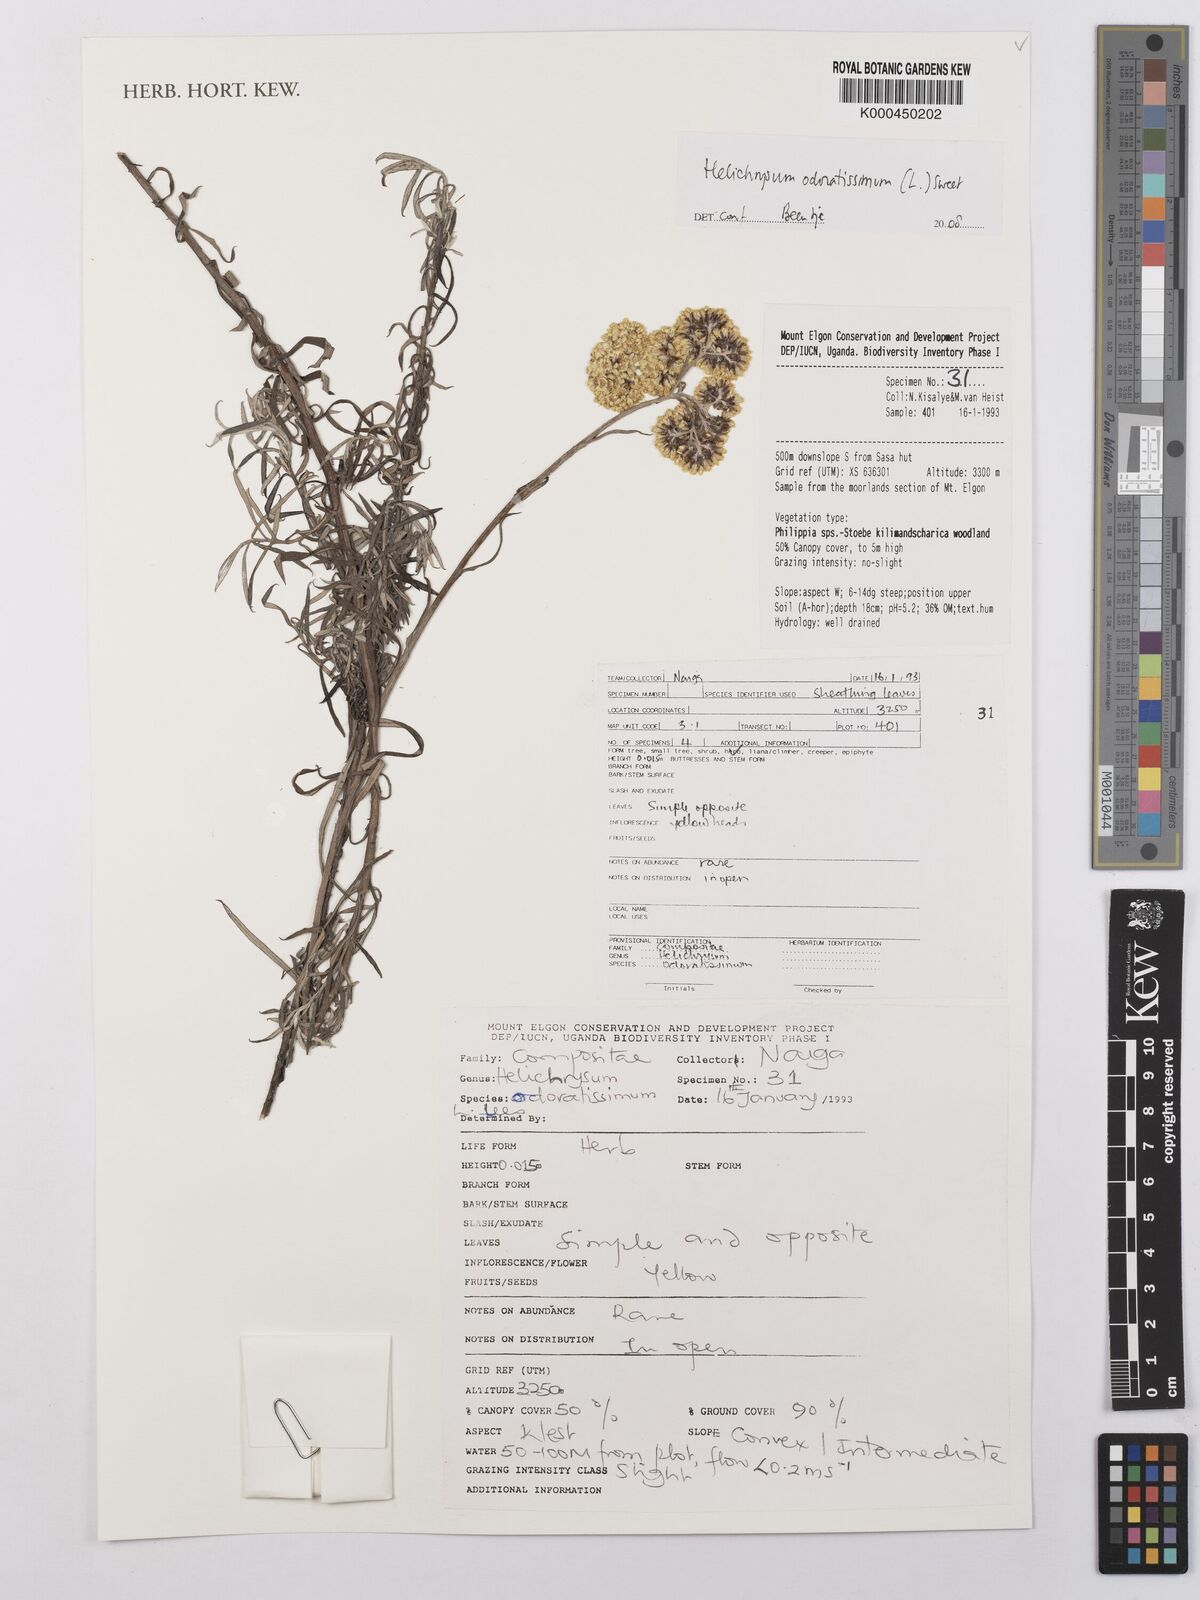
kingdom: Plantae
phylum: Tracheophyta
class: Magnoliopsida
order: Asterales
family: Asteraceae
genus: Helichrysum
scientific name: Helichrysum odoratissimum
